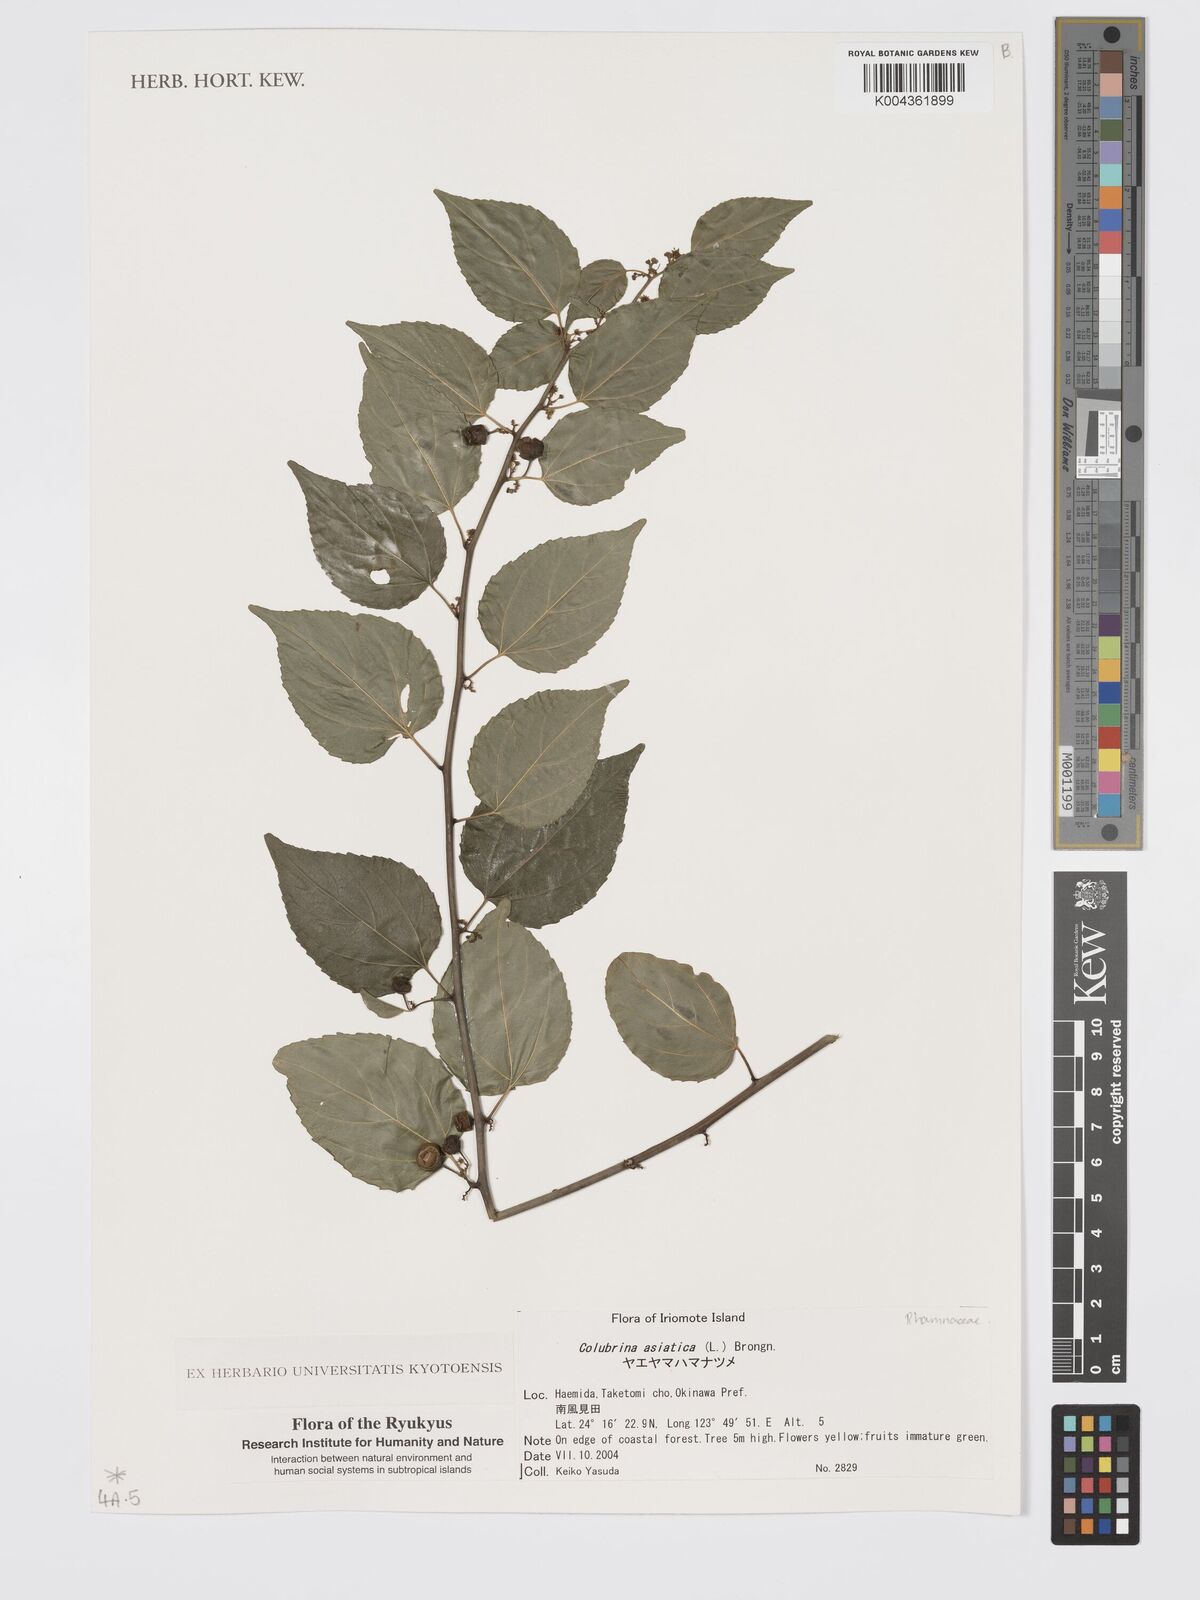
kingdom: Plantae
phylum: Tracheophyta
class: Magnoliopsida
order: Rosales
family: Rhamnaceae
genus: Colubrina
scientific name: Colubrina asiatica
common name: Asian nakedwood
